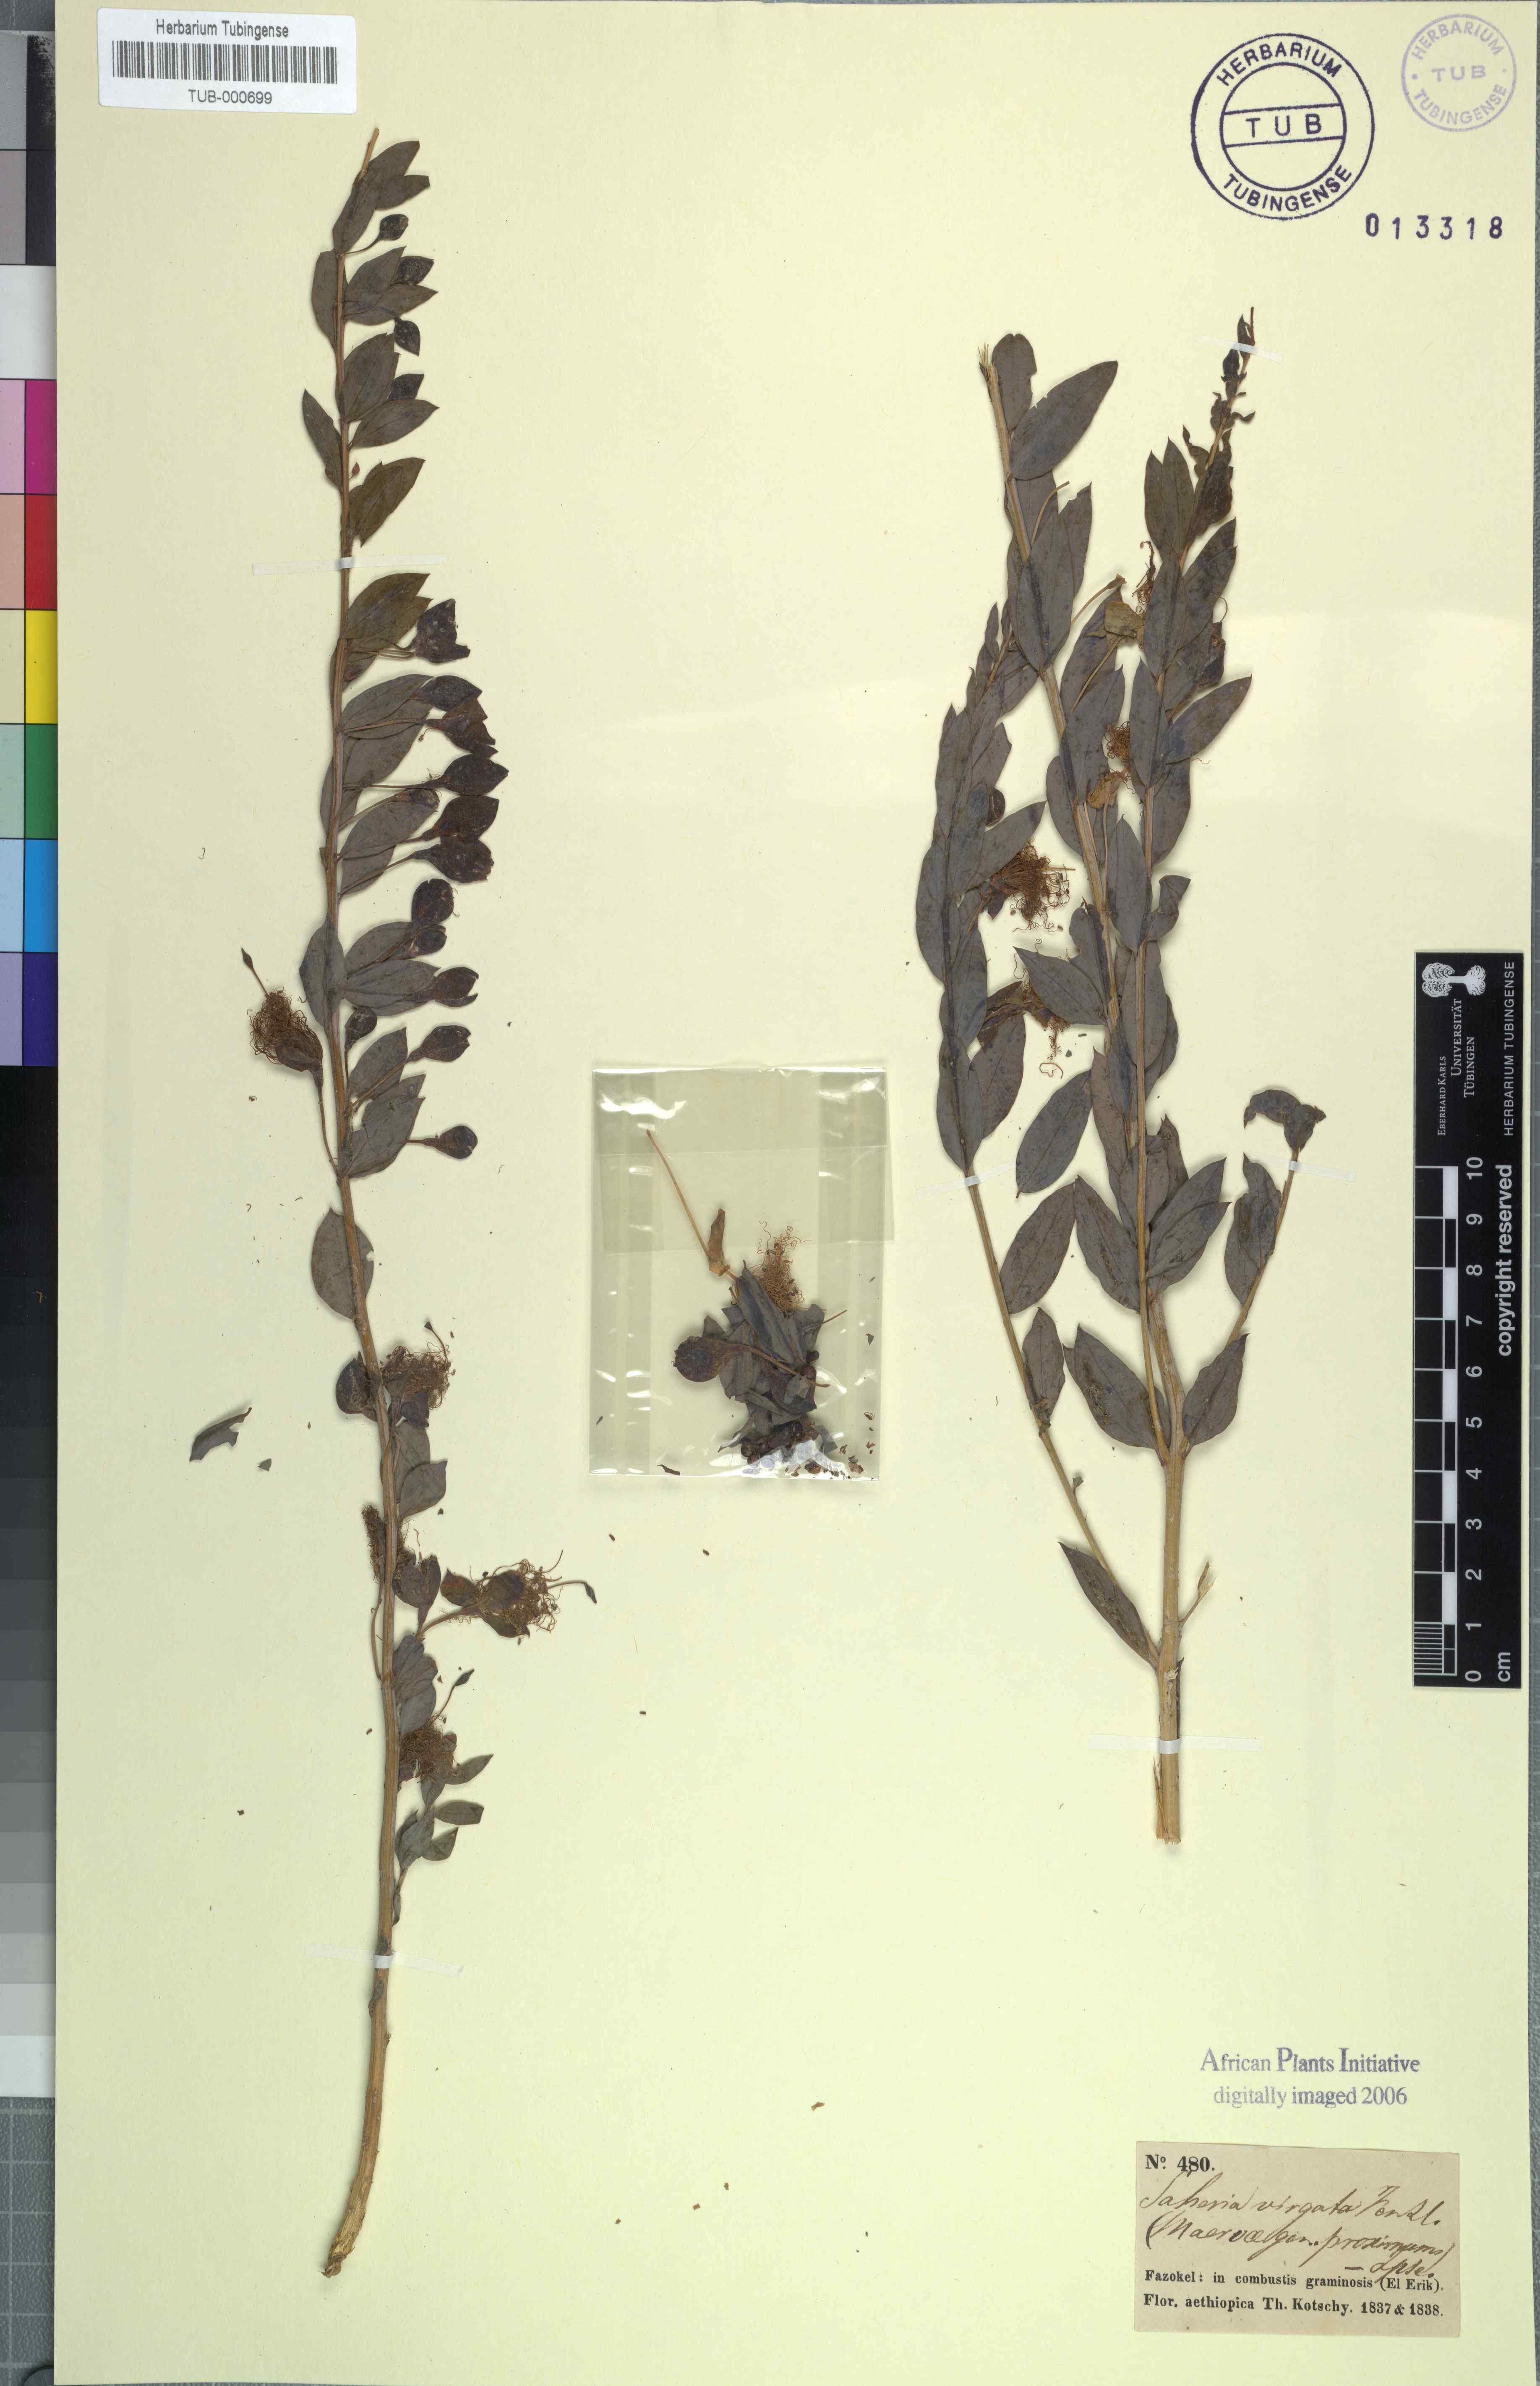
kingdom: Plantae
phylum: Tracheophyta
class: Magnoliopsida
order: Brassicales
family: Capparaceae
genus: Maerua
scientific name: Maerua pseudopetalosa
